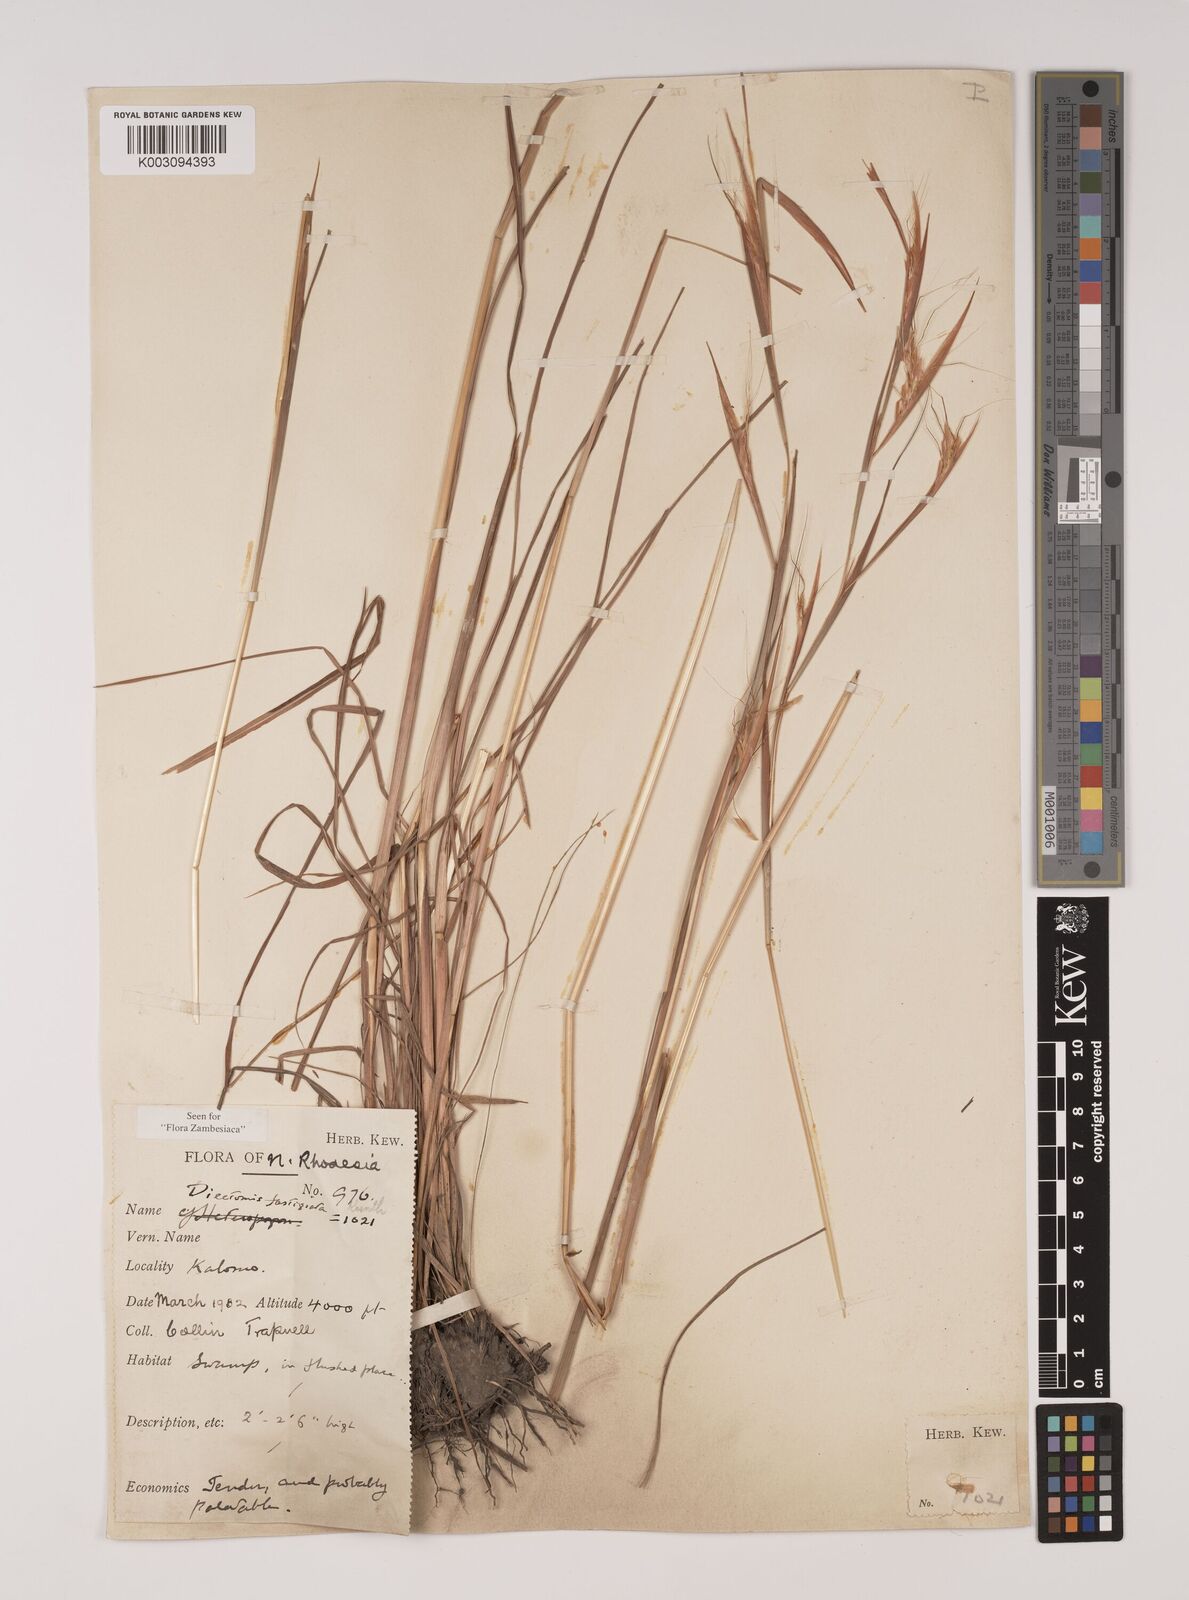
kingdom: Plantae
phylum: Tracheophyta
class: Liliopsida
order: Poales
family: Poaceae
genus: Diectomis
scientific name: Diectomis fastigiata
